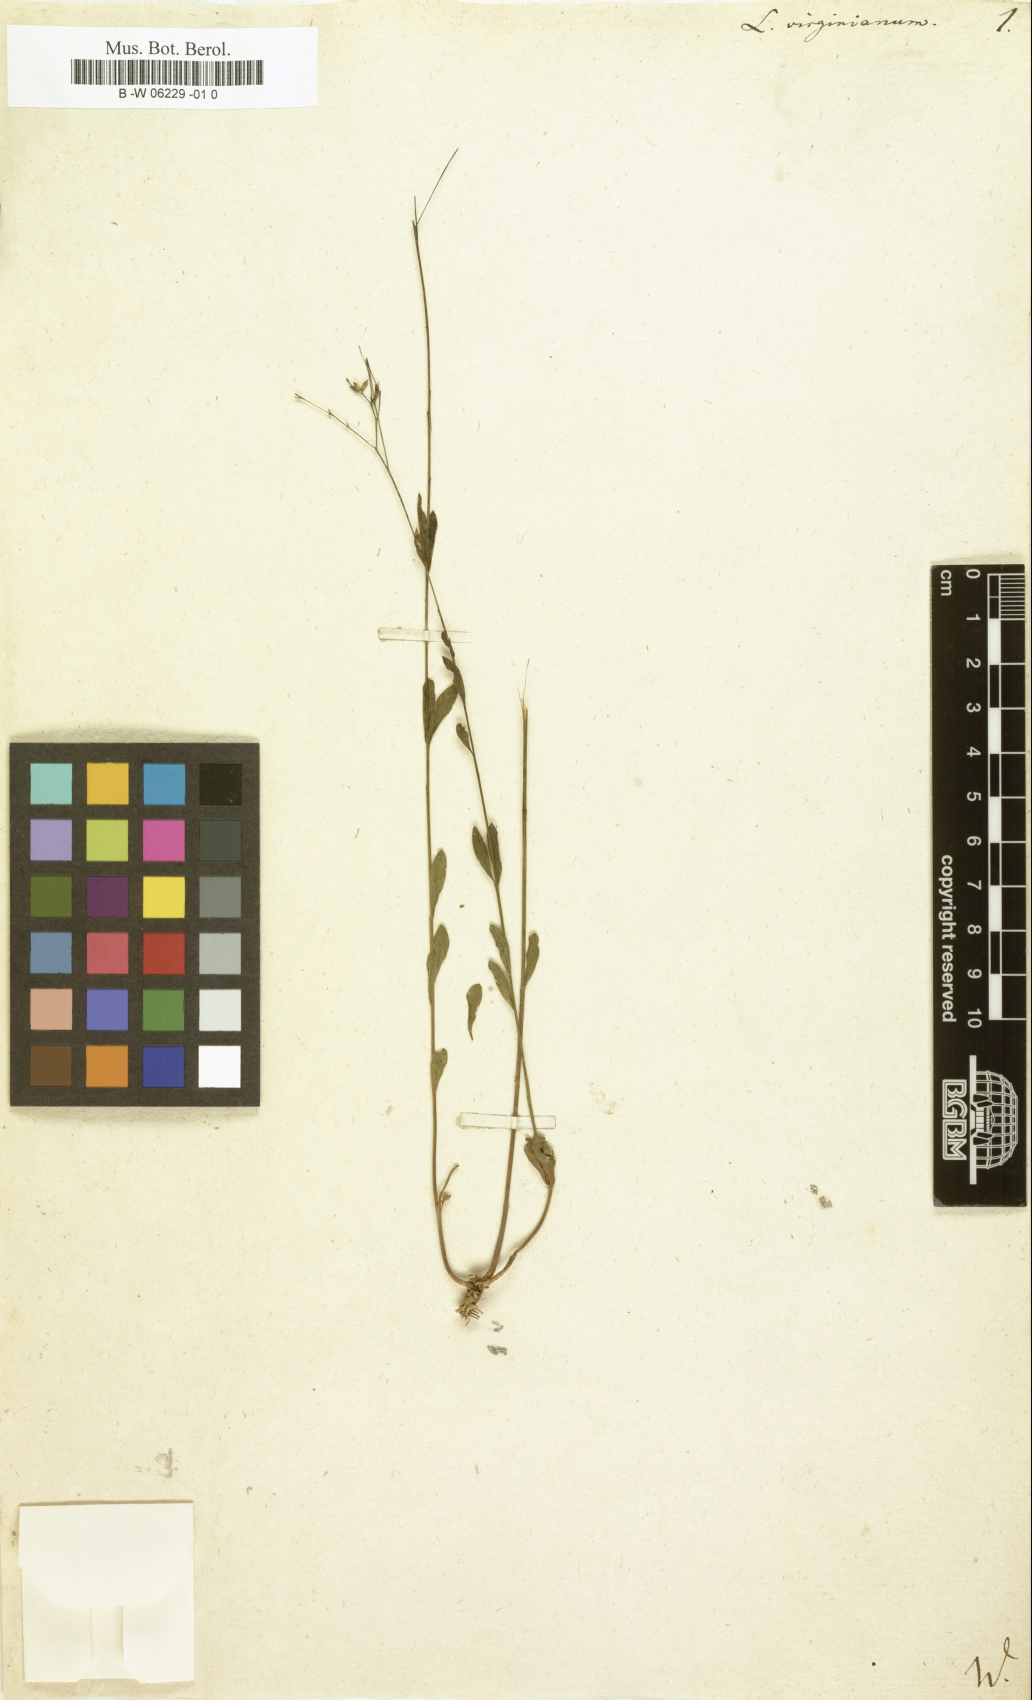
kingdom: Plantae
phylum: Tracheophyta
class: Magnoliopsida
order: Malpighiales
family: Linaceae
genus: Linum
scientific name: Linum virginianum
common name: Slender yellow flax
